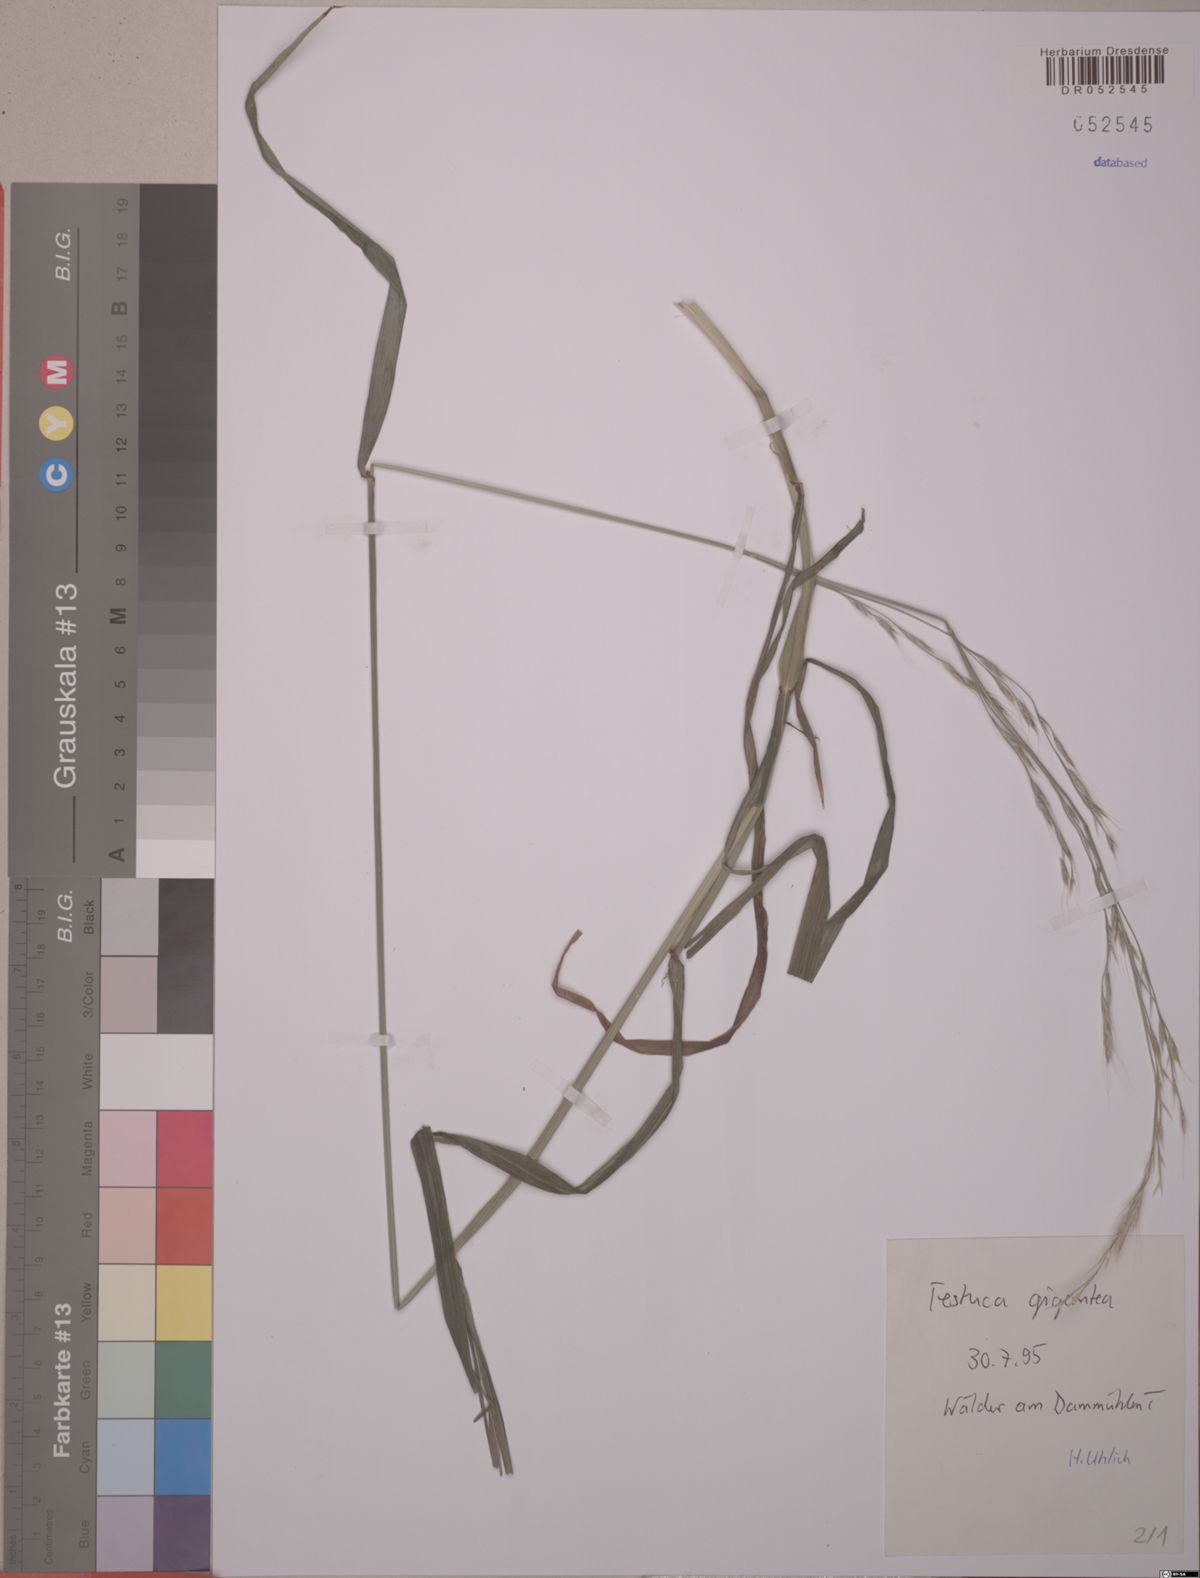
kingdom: Plantae
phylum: Tracheophyta
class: Liliopsida
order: Poales
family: Poaceae
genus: Lolium
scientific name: Lolium giganteum
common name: Giant fescue
